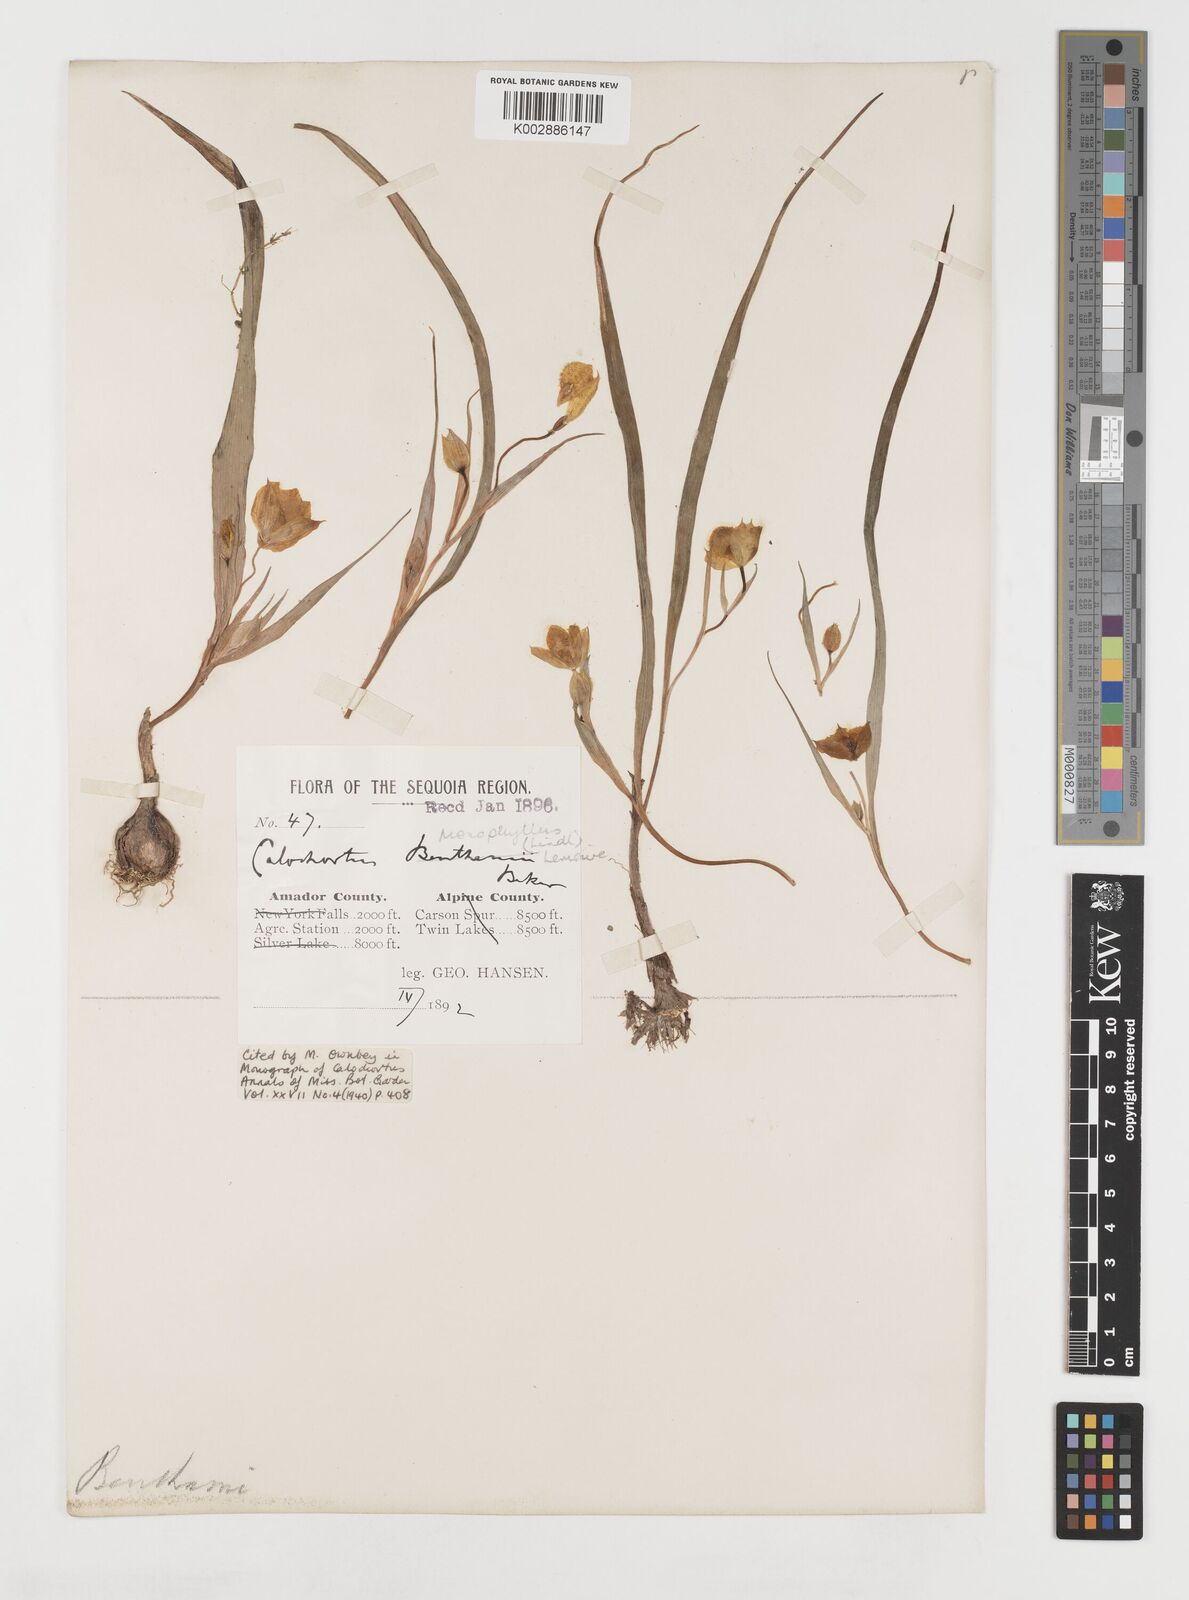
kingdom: Plantae
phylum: Tracheophyta
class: Liliopsida
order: Liliales
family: Liliaceae
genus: Calochortus
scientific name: Calochortus monophyllus
